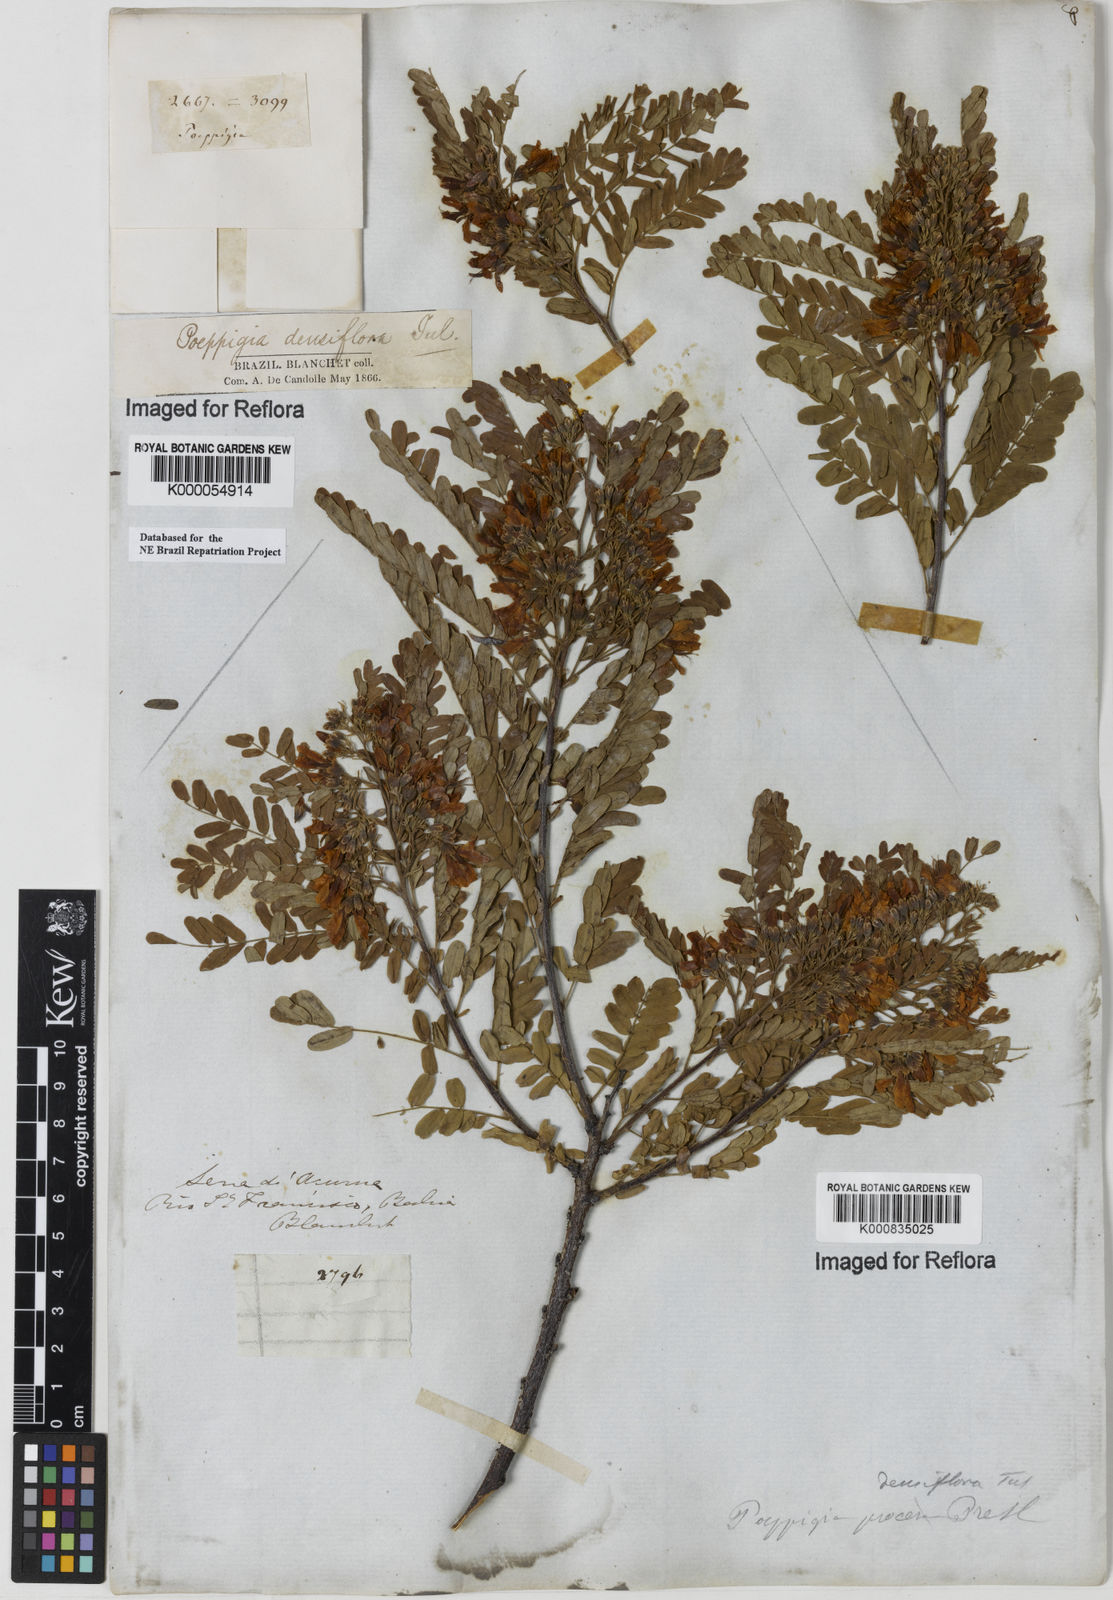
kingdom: Plantae
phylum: Tracheophyta
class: Magnoliopsida
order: Fabales
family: Fabaceae
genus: Poeppigia
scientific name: Poeppigia procera
